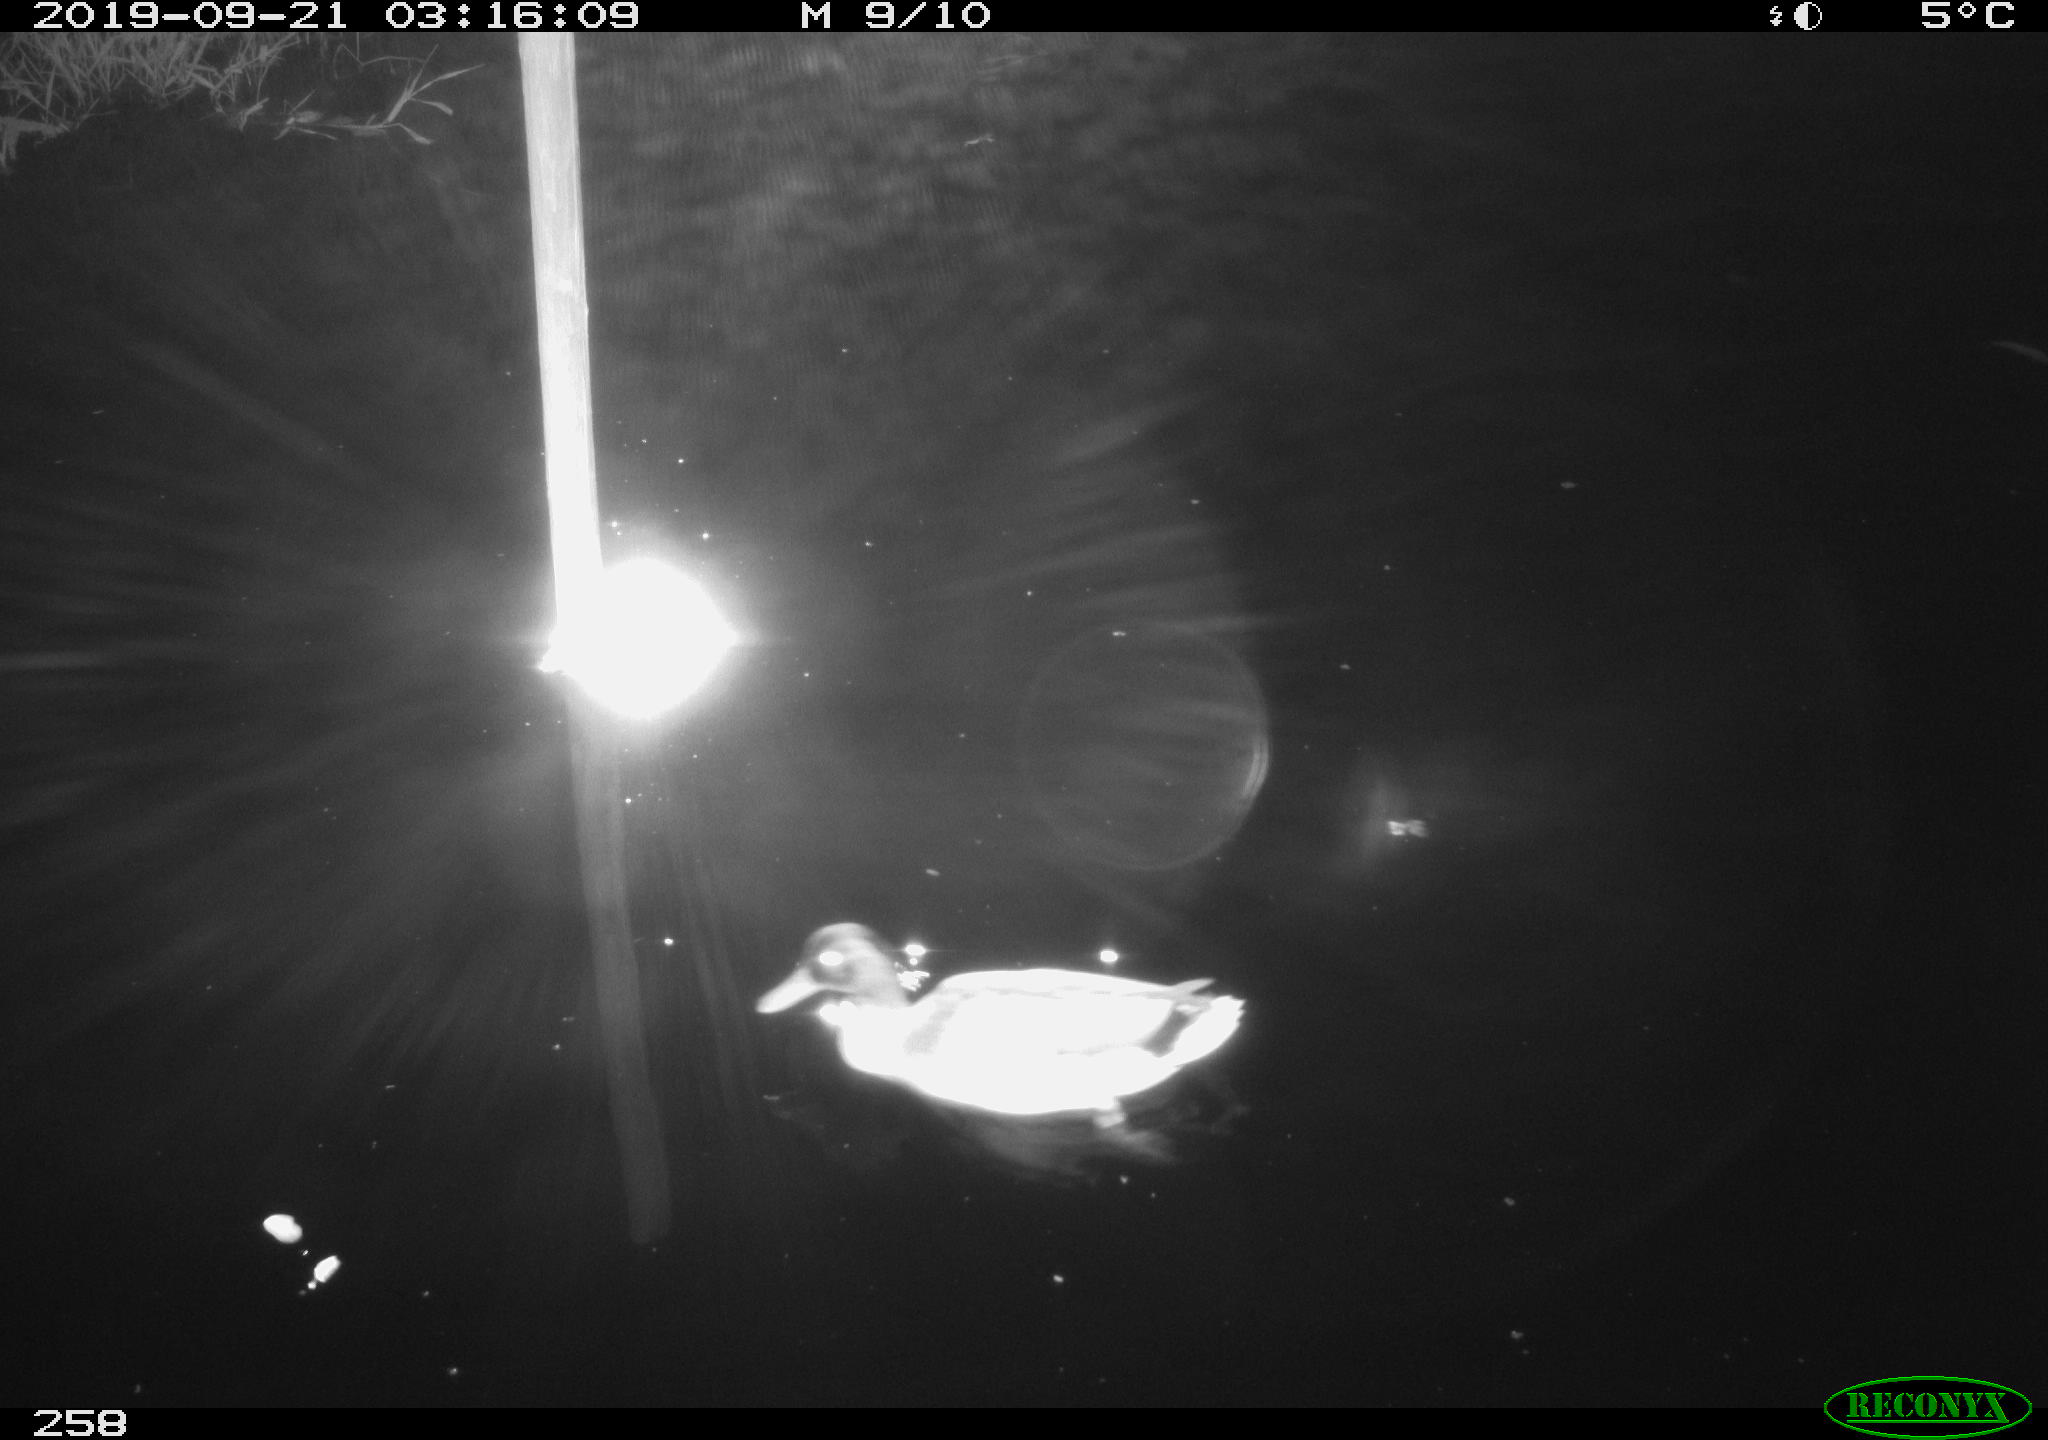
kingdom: Animalia
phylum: Chordata
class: Aves
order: Anseriformes
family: Anatidae
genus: Anas
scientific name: Anas platyrhynchos
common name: Mallard
